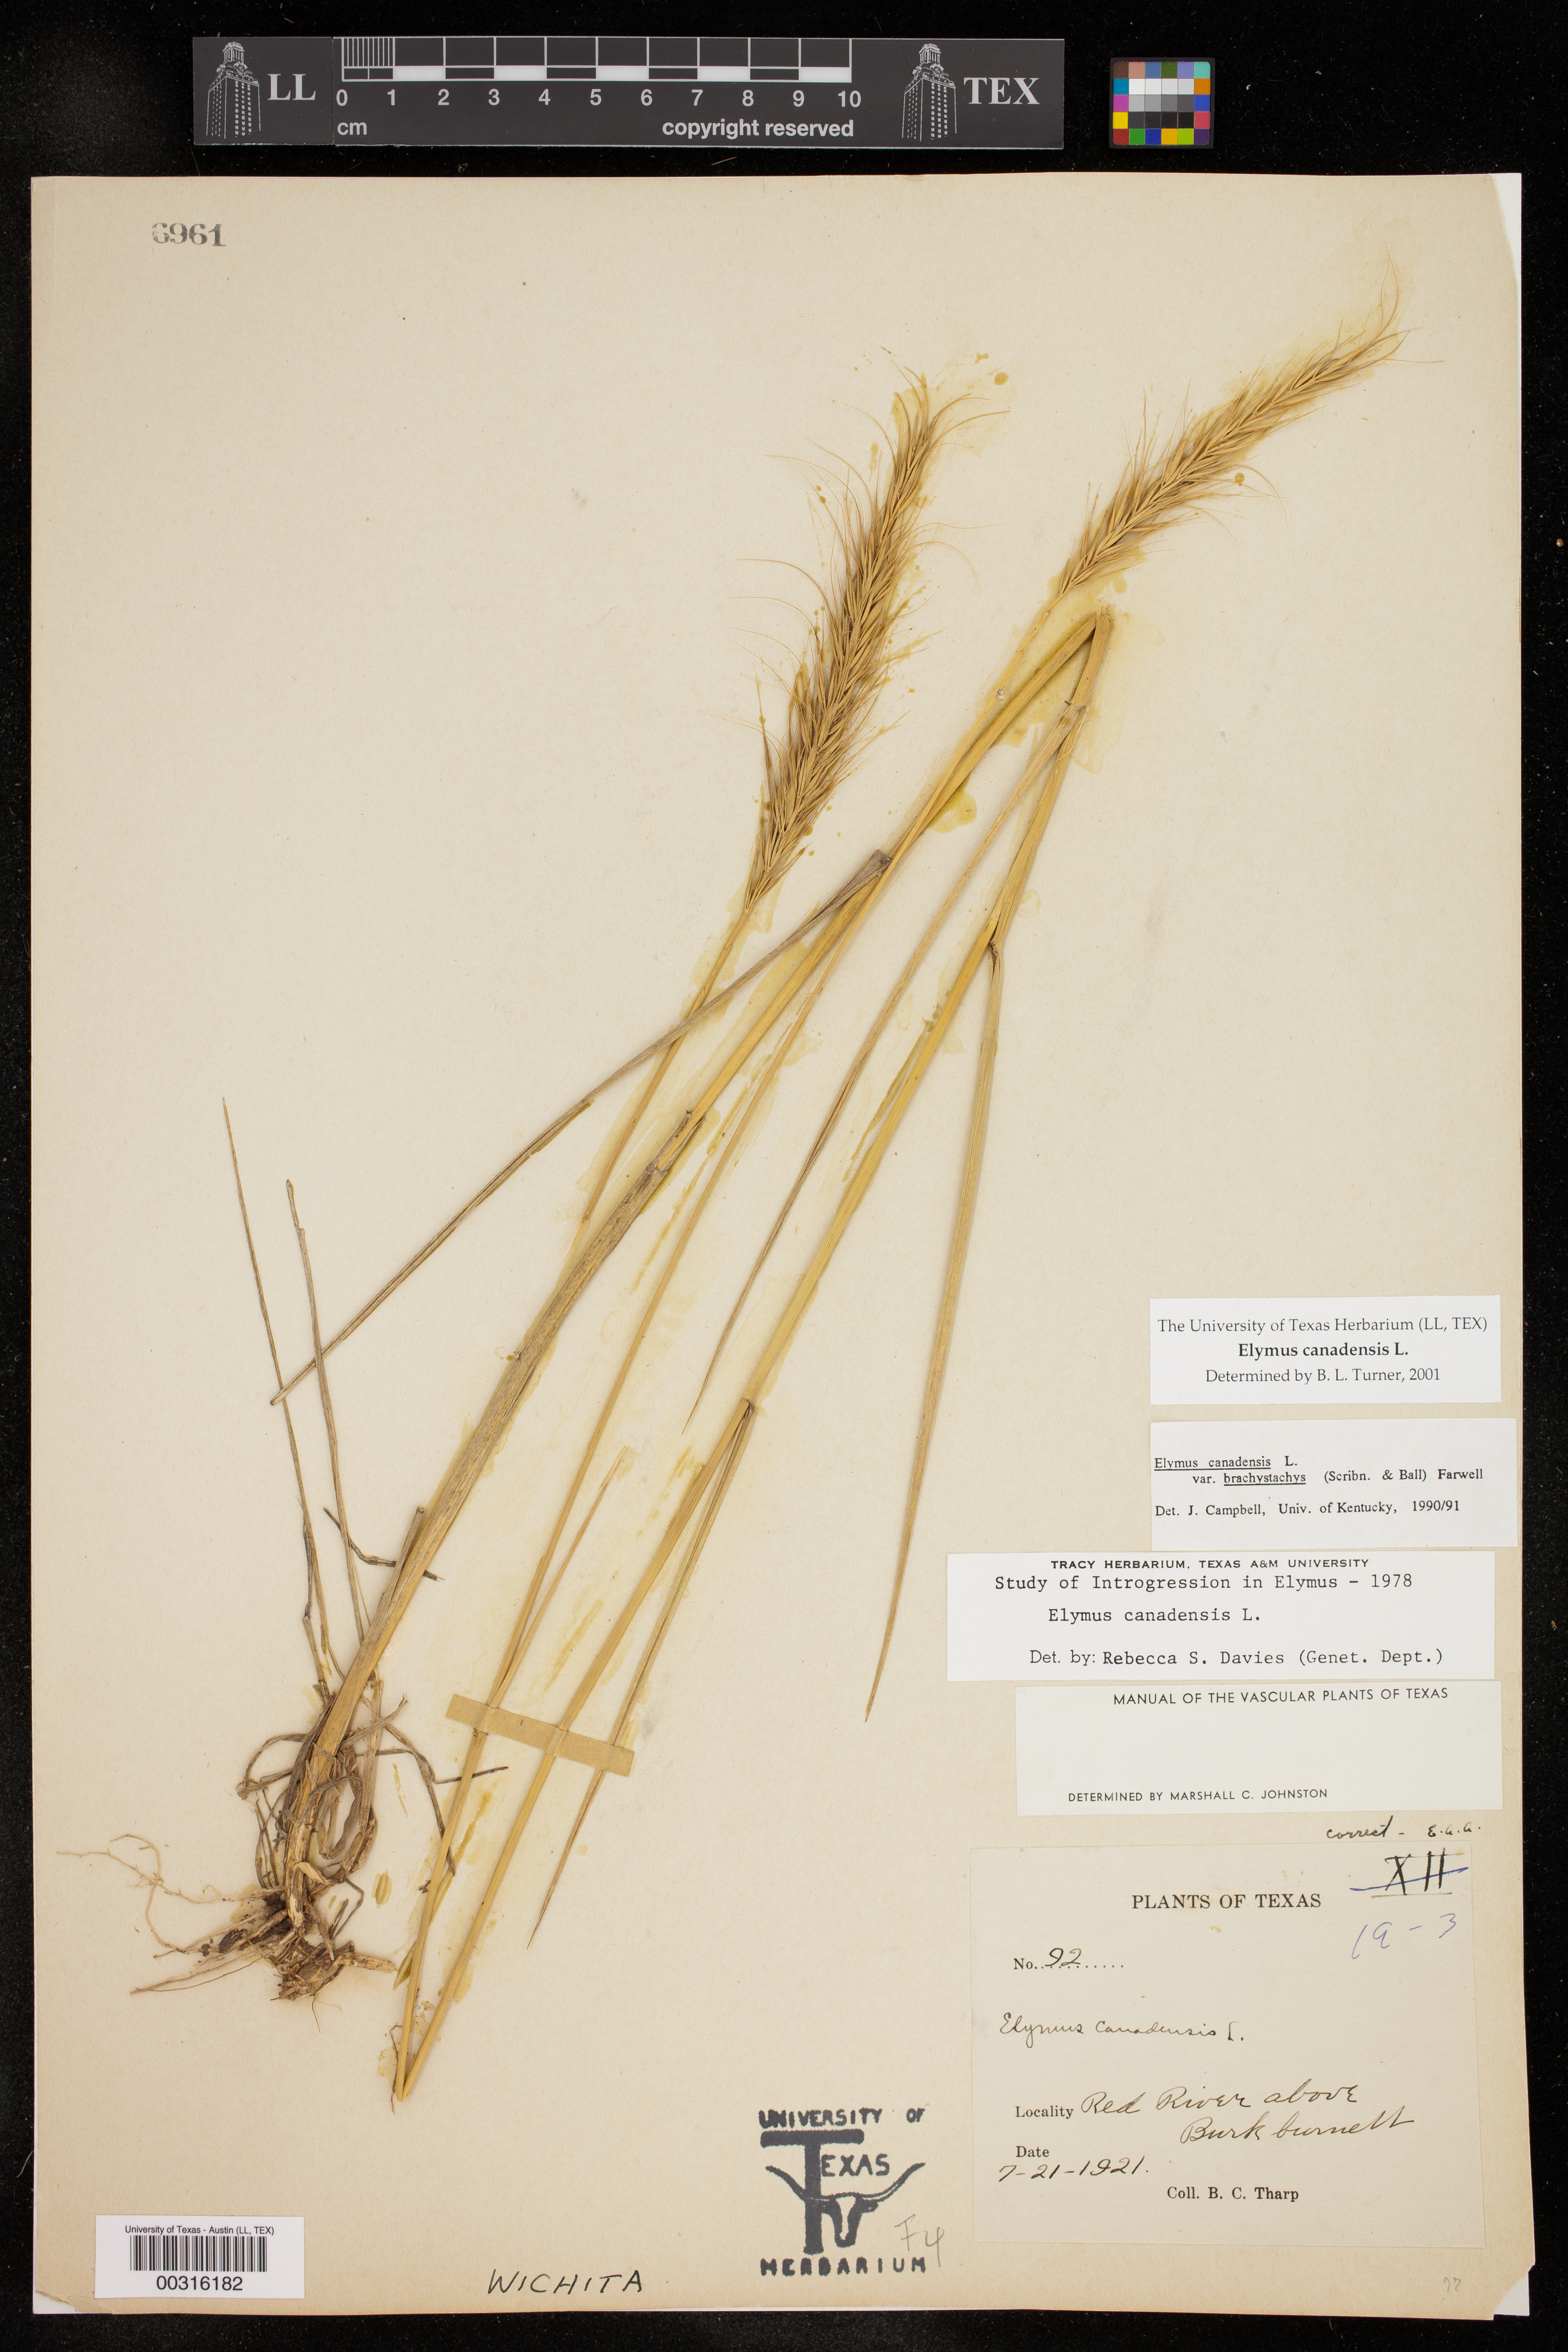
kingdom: Plantae
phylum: Tracheophyta
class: Liliopsida
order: Poales
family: Poaceae
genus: Elymus
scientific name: Elymus canadensis
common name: Canada wild rye
